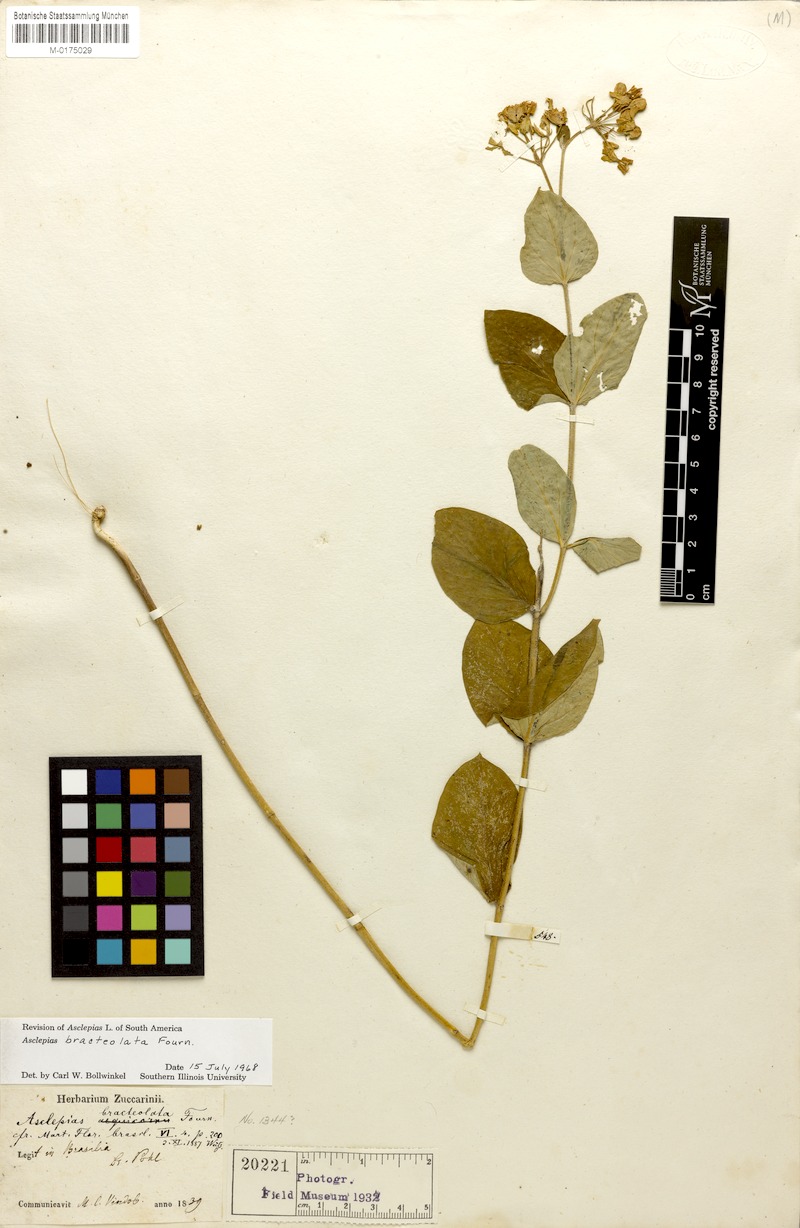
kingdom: Plantae
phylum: Tracheophyta
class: Magnoliopsida
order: Gentianales
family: Apocynaceae
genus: Asclepias
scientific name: Asclepias bracteolata
